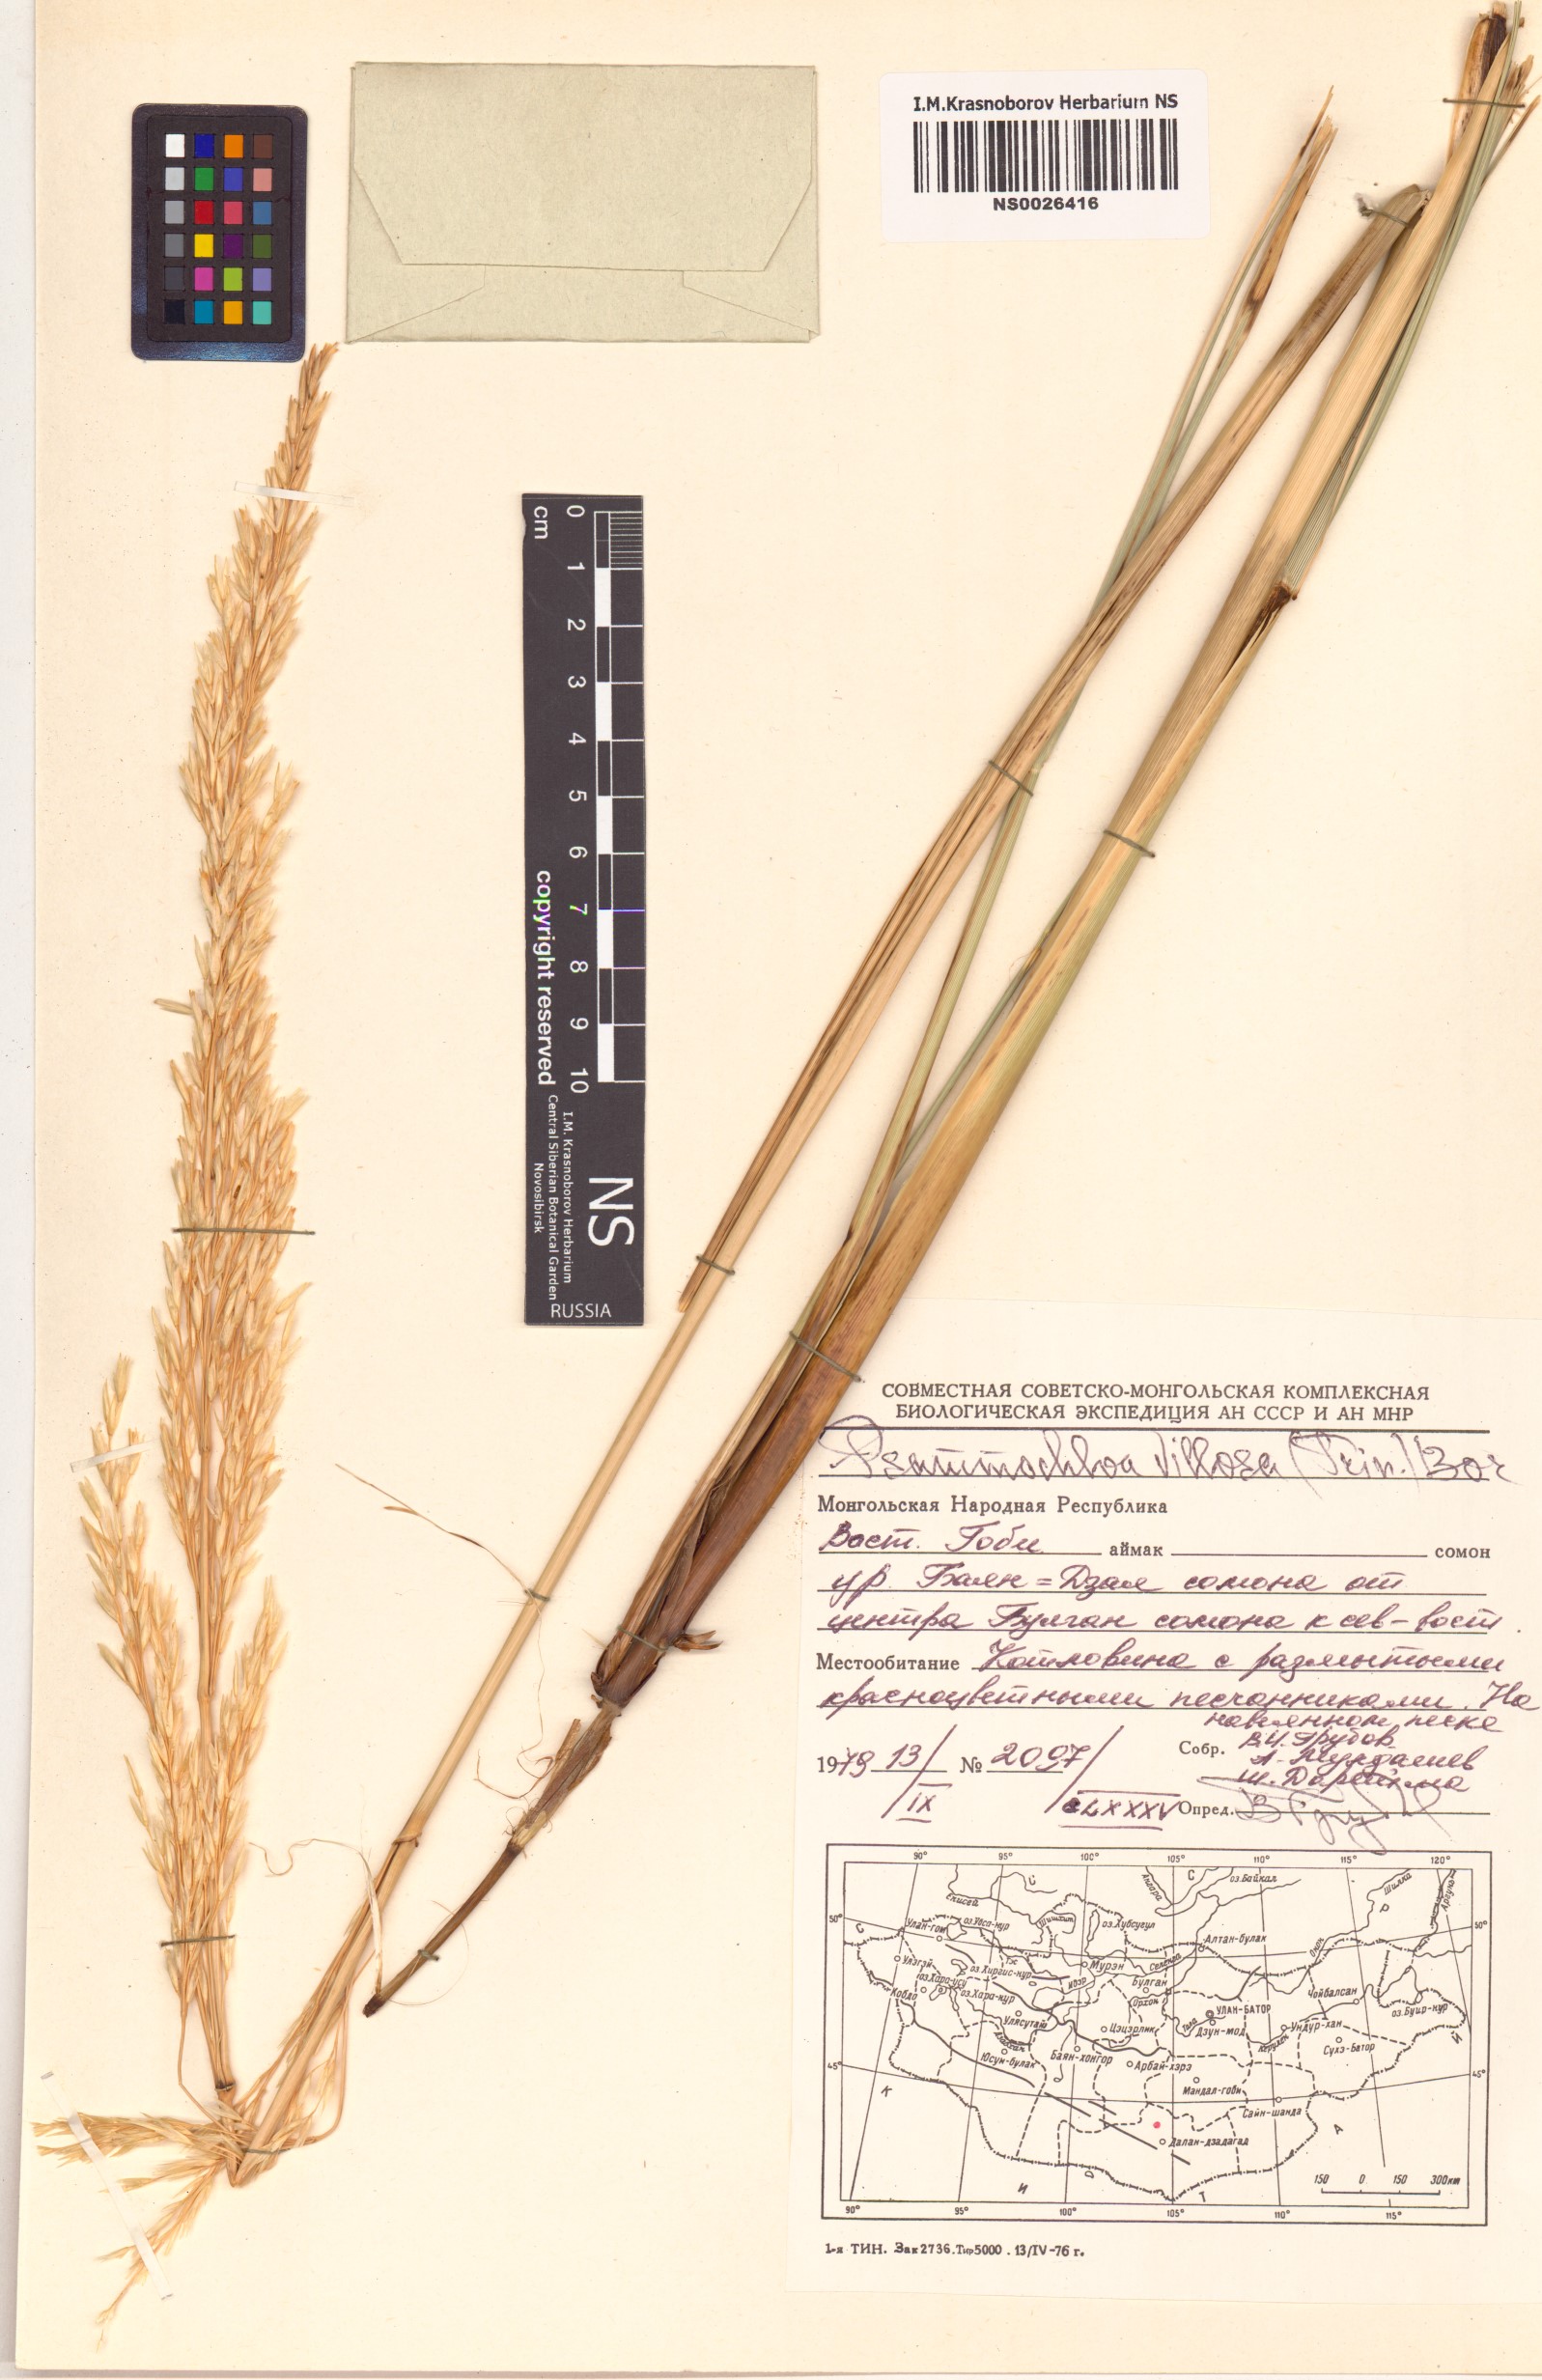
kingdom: Plantae
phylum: Tracheophyta
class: Liliopsida
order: Poales
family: Poaceae
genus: Psammochloa
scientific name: Psammochloa villosa
